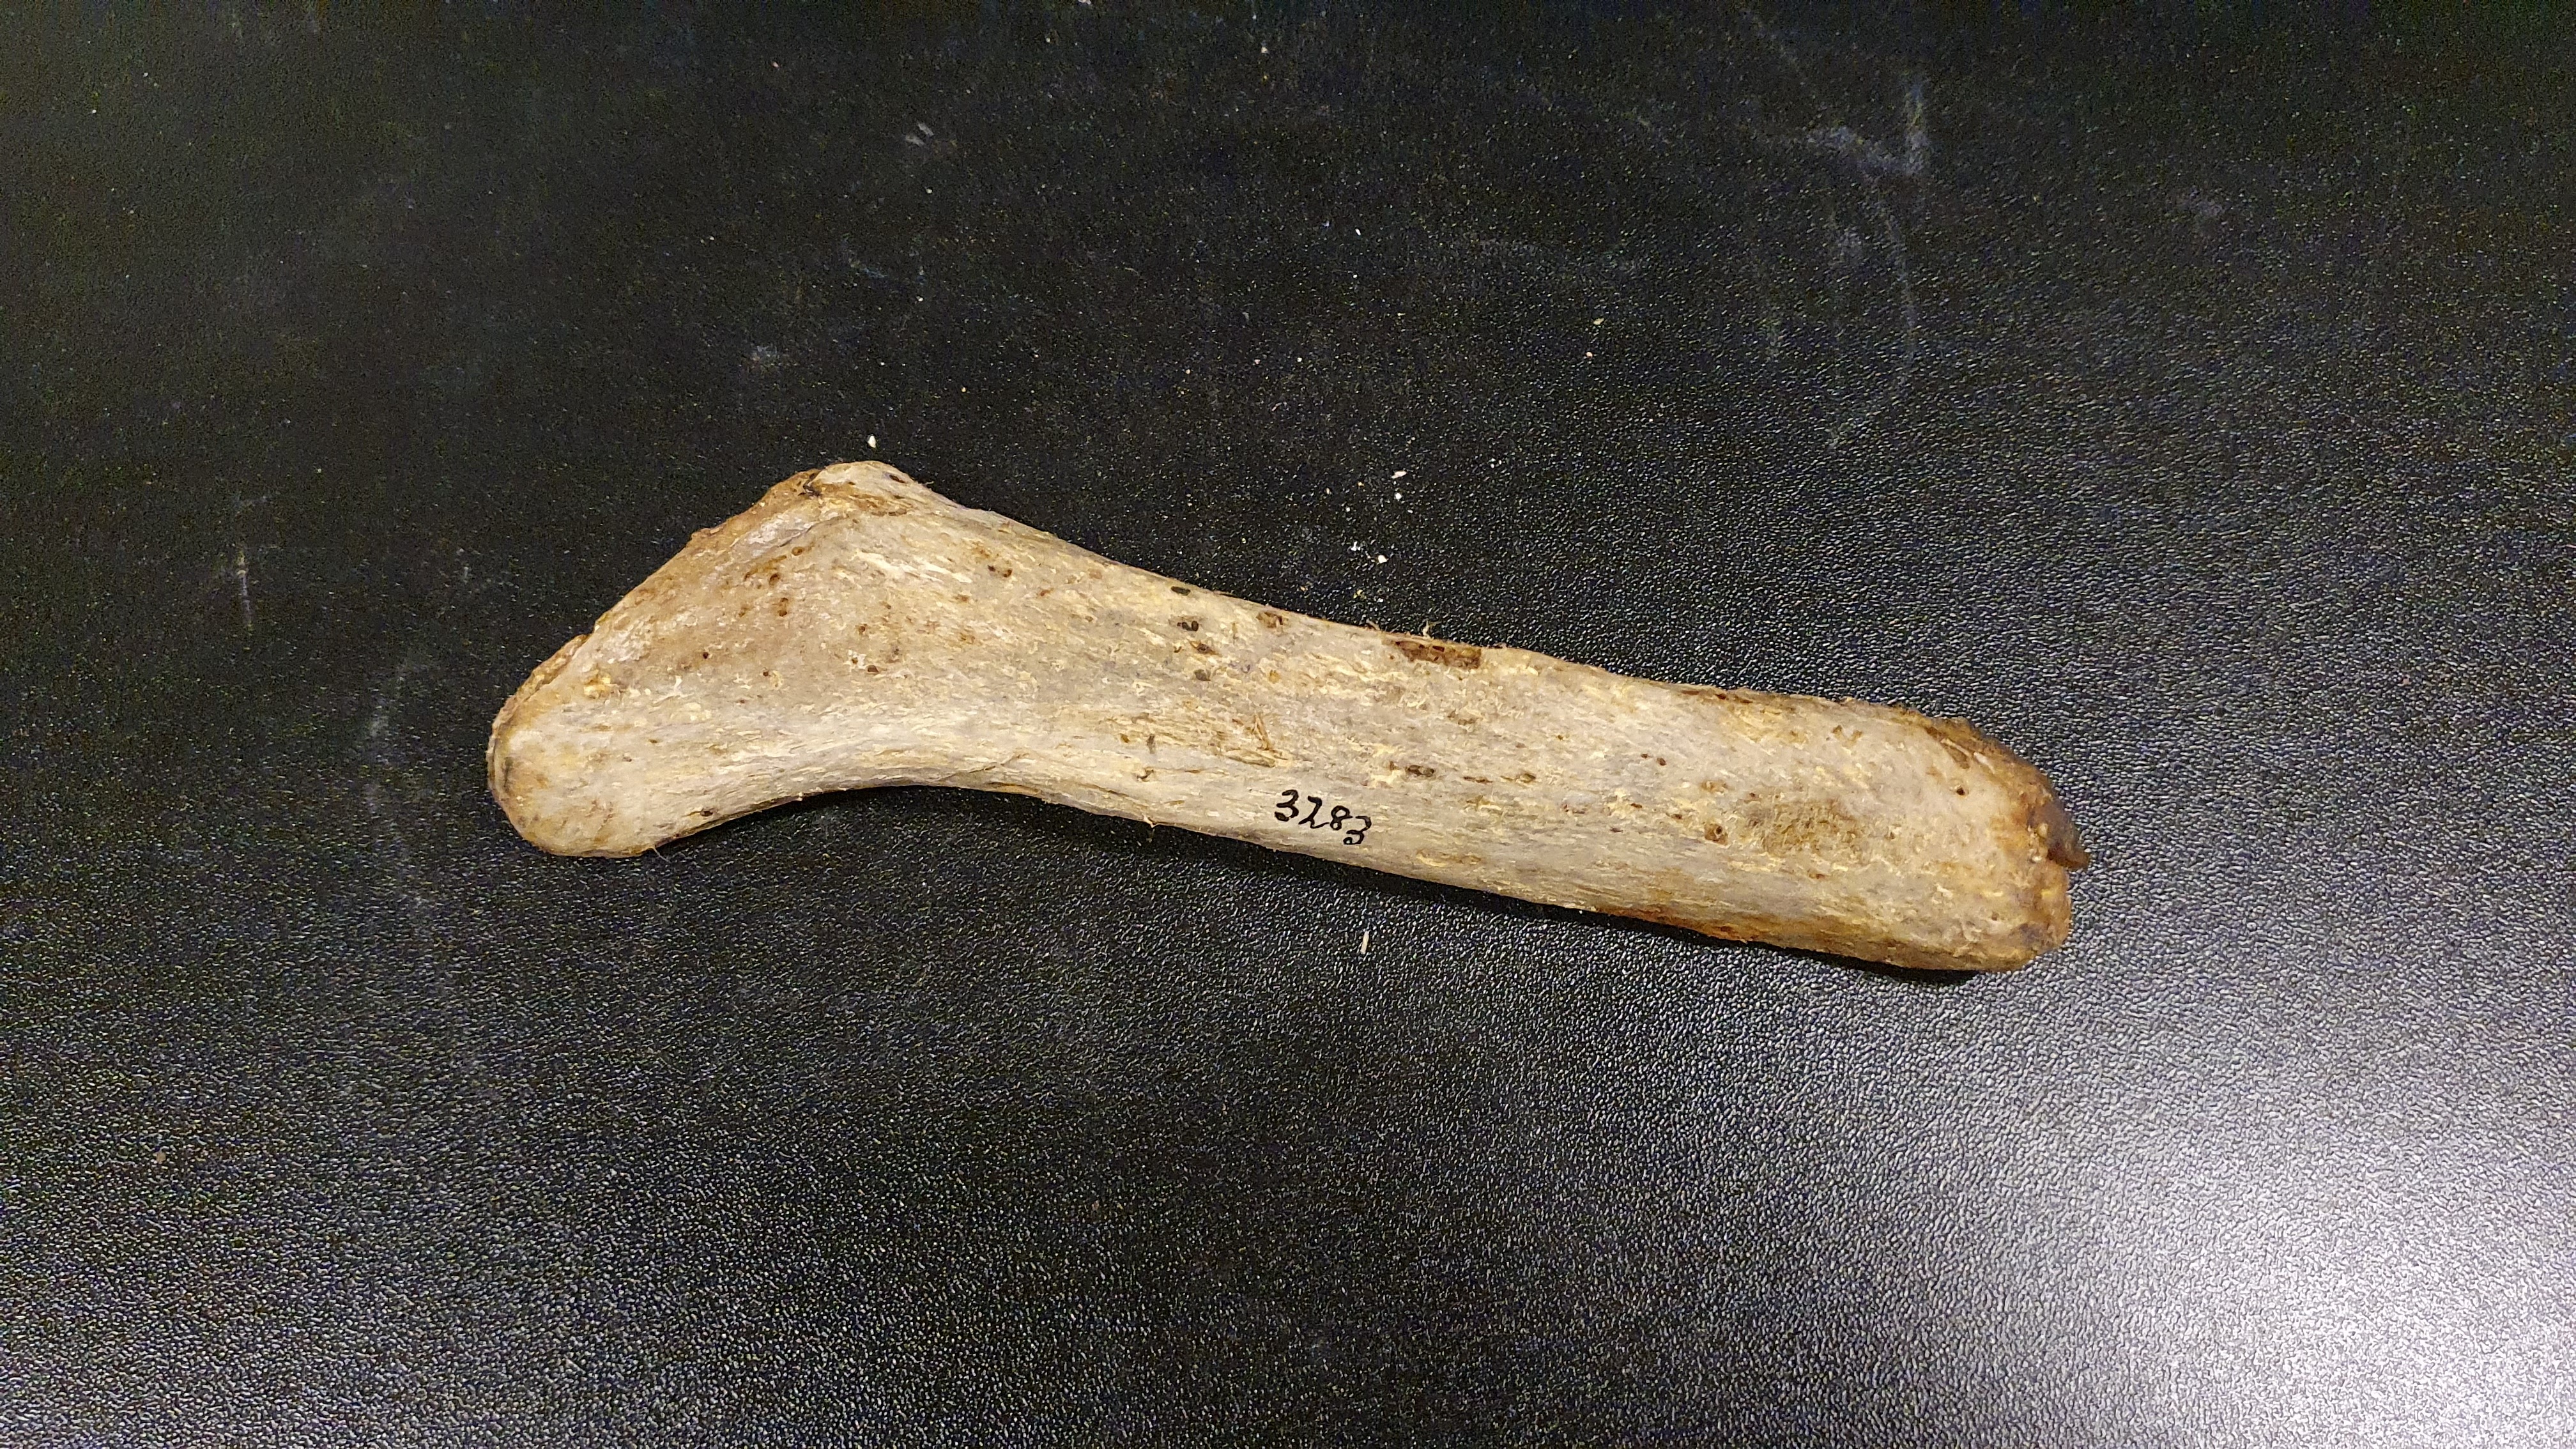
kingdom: Animalia
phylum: Chordata
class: Mammalia
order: Artiodactyla
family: Giraffidae
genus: Okapia
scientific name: Okapia johnstoni
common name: Okapi
